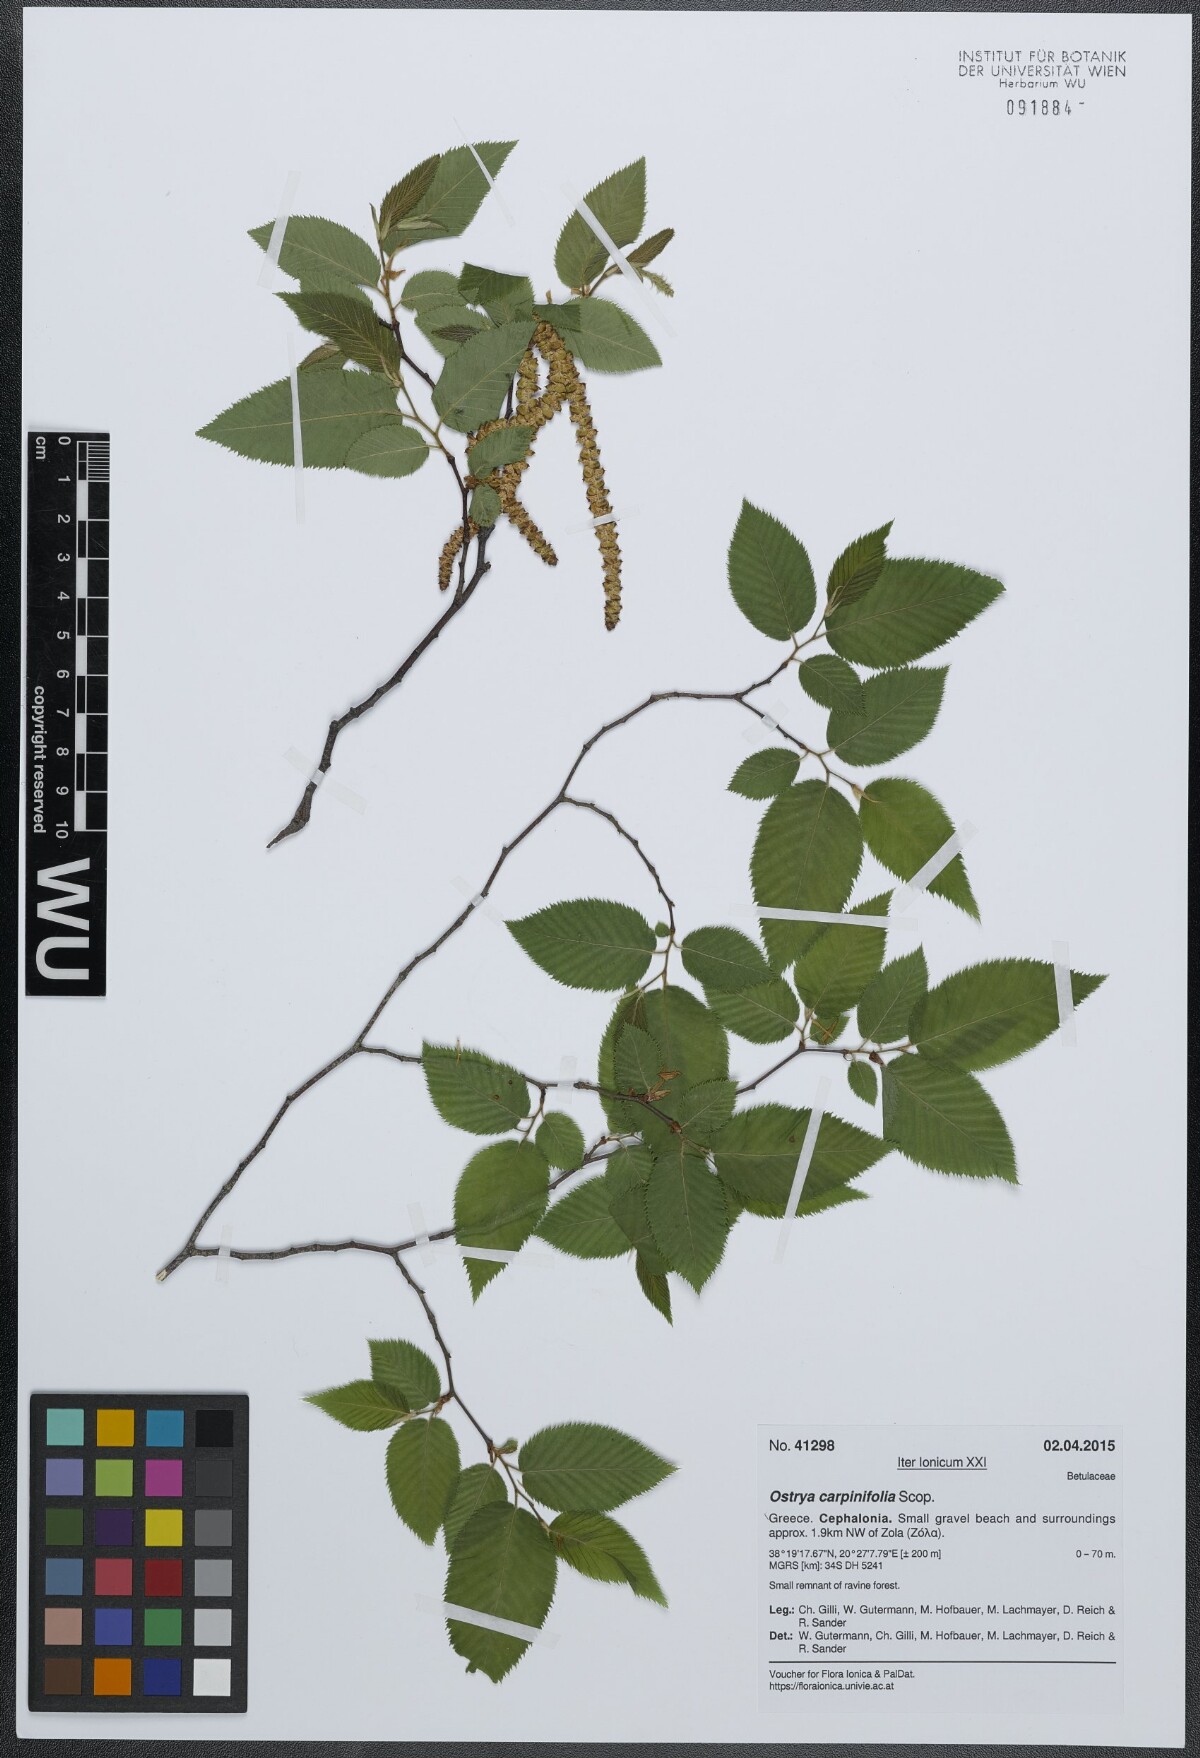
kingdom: Plantae
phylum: Tracheophyta
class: Magnoliopsida
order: Fagales
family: Betulaceae
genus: Ostrya
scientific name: Ostrya carpinifolia
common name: European hop-hornbeam
